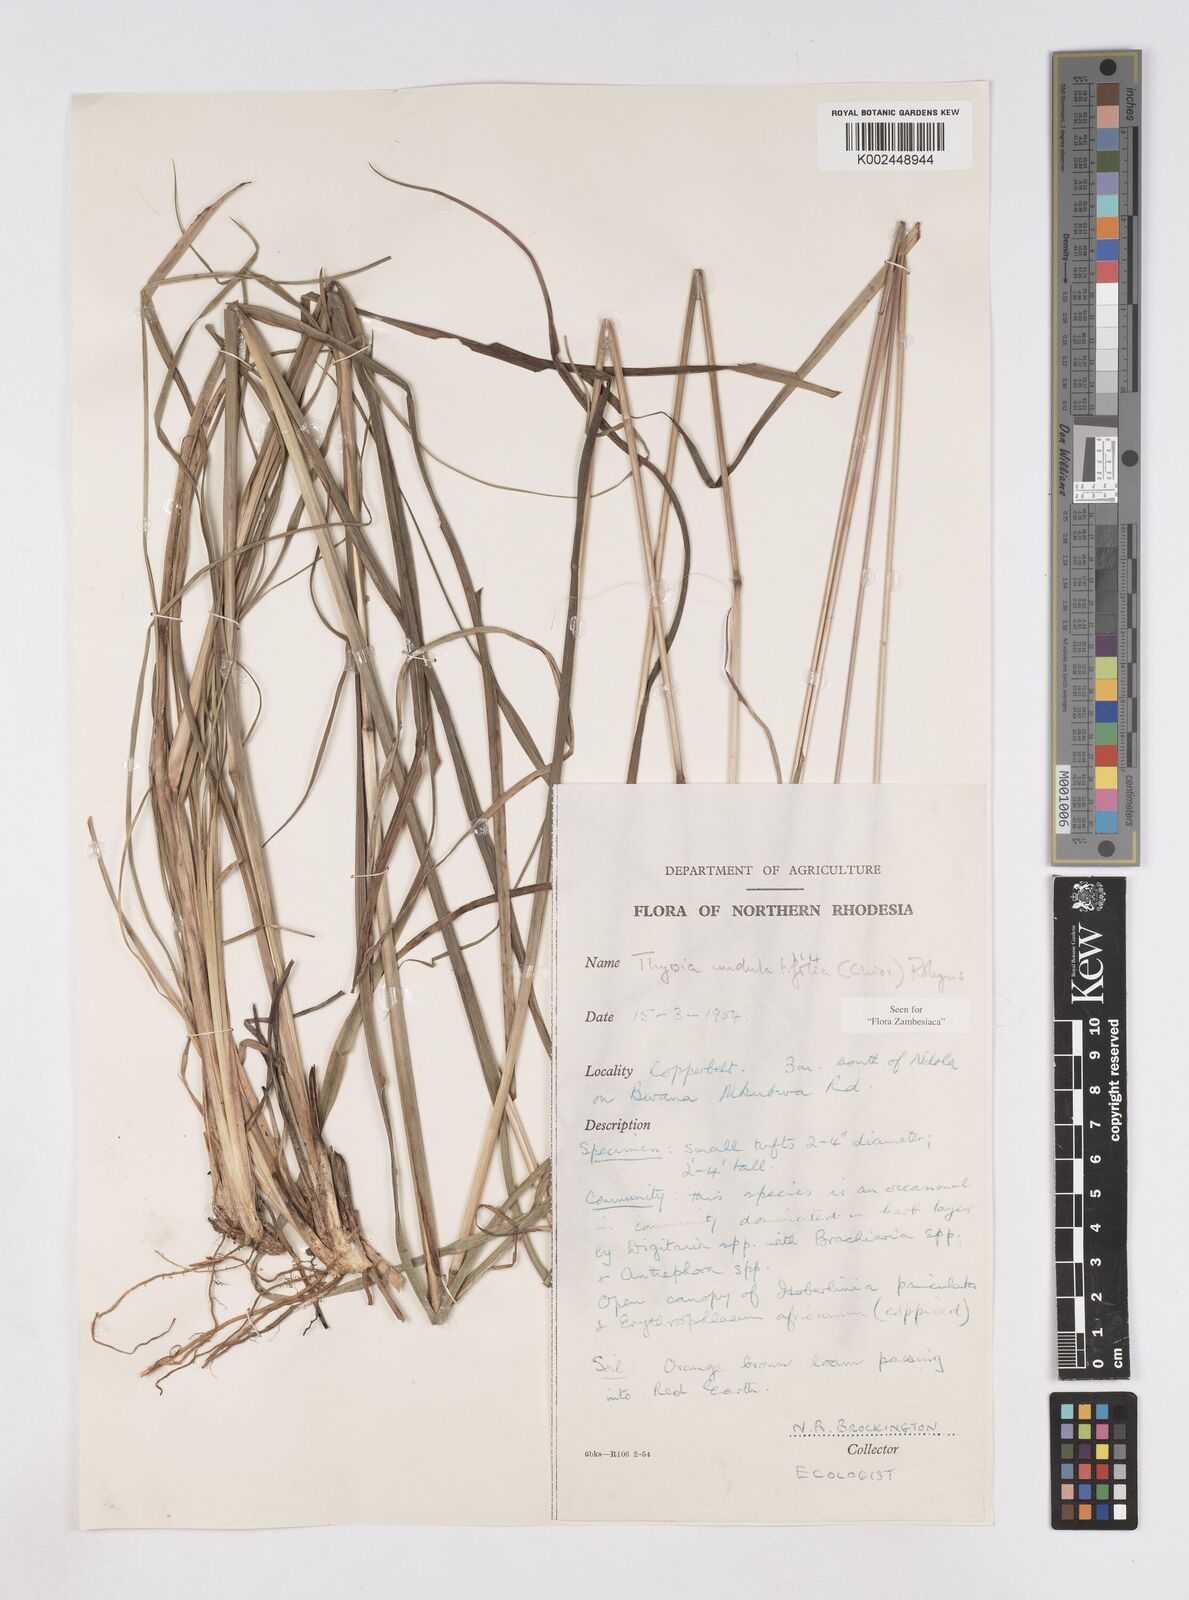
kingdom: Plantae
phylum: Tracheophyta
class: Liliopsida
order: Poales
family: Poaceae
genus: Thyrsia
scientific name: Thyrsia huillensis
